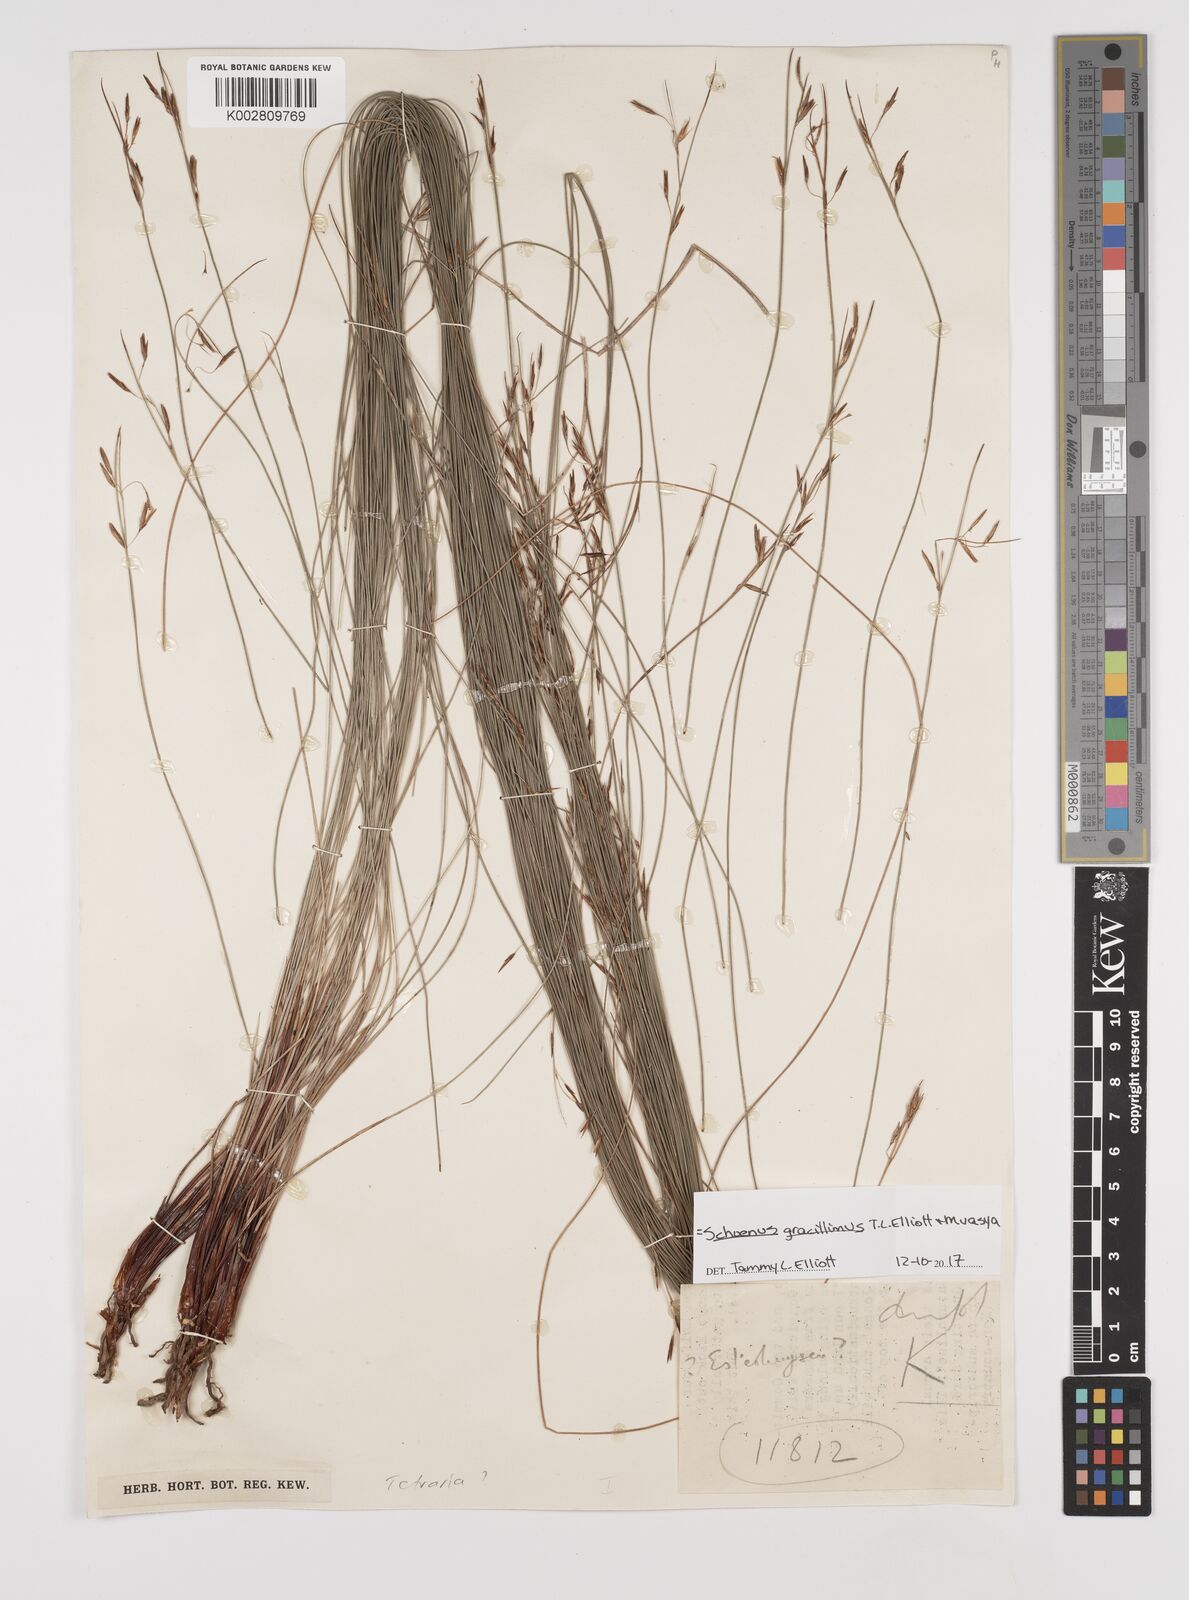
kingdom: Plantae
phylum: Tracheophyta
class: Liliopsida
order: Poales
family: Cyperaceae
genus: Rhynchospora
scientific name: Rhynchospora racemosa
